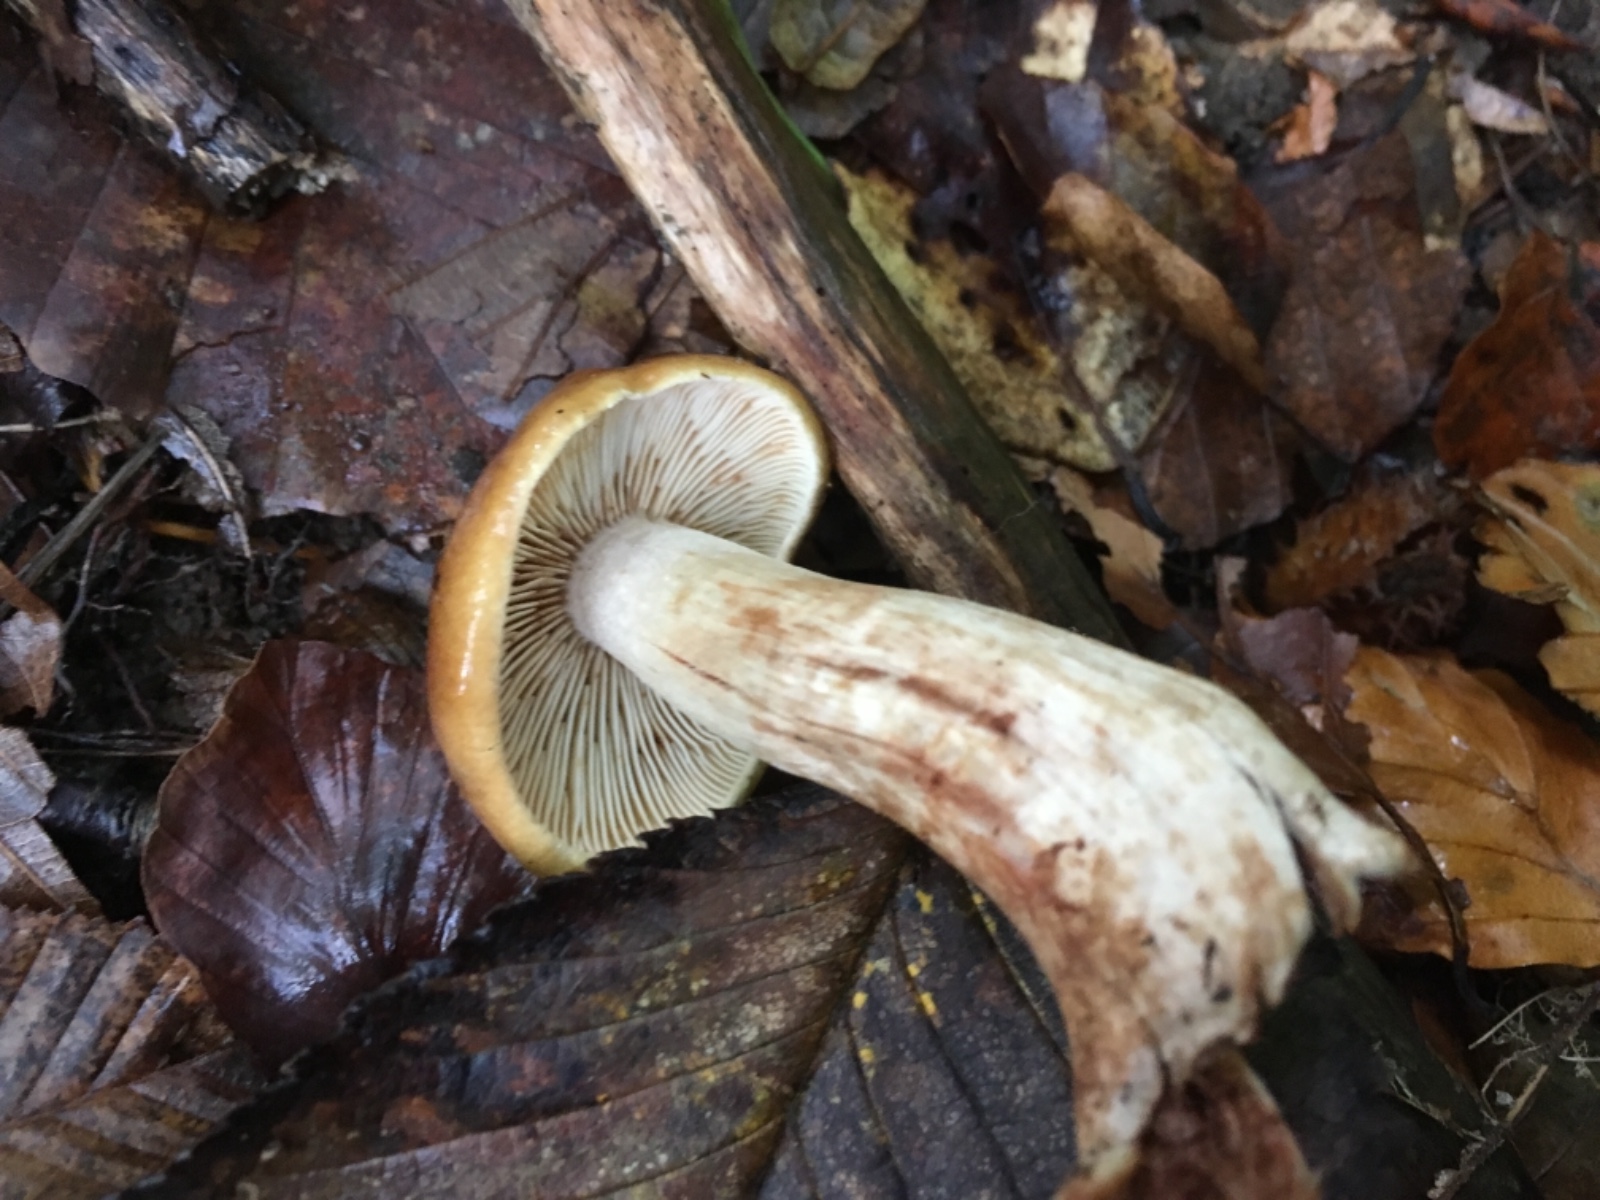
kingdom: Fungi
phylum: Basidiomycota
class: Agaricomycetes
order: Agaricales
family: Tricholomataceae
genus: Tricholoma
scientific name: Tricholoma ustale
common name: sveden ridderhat
